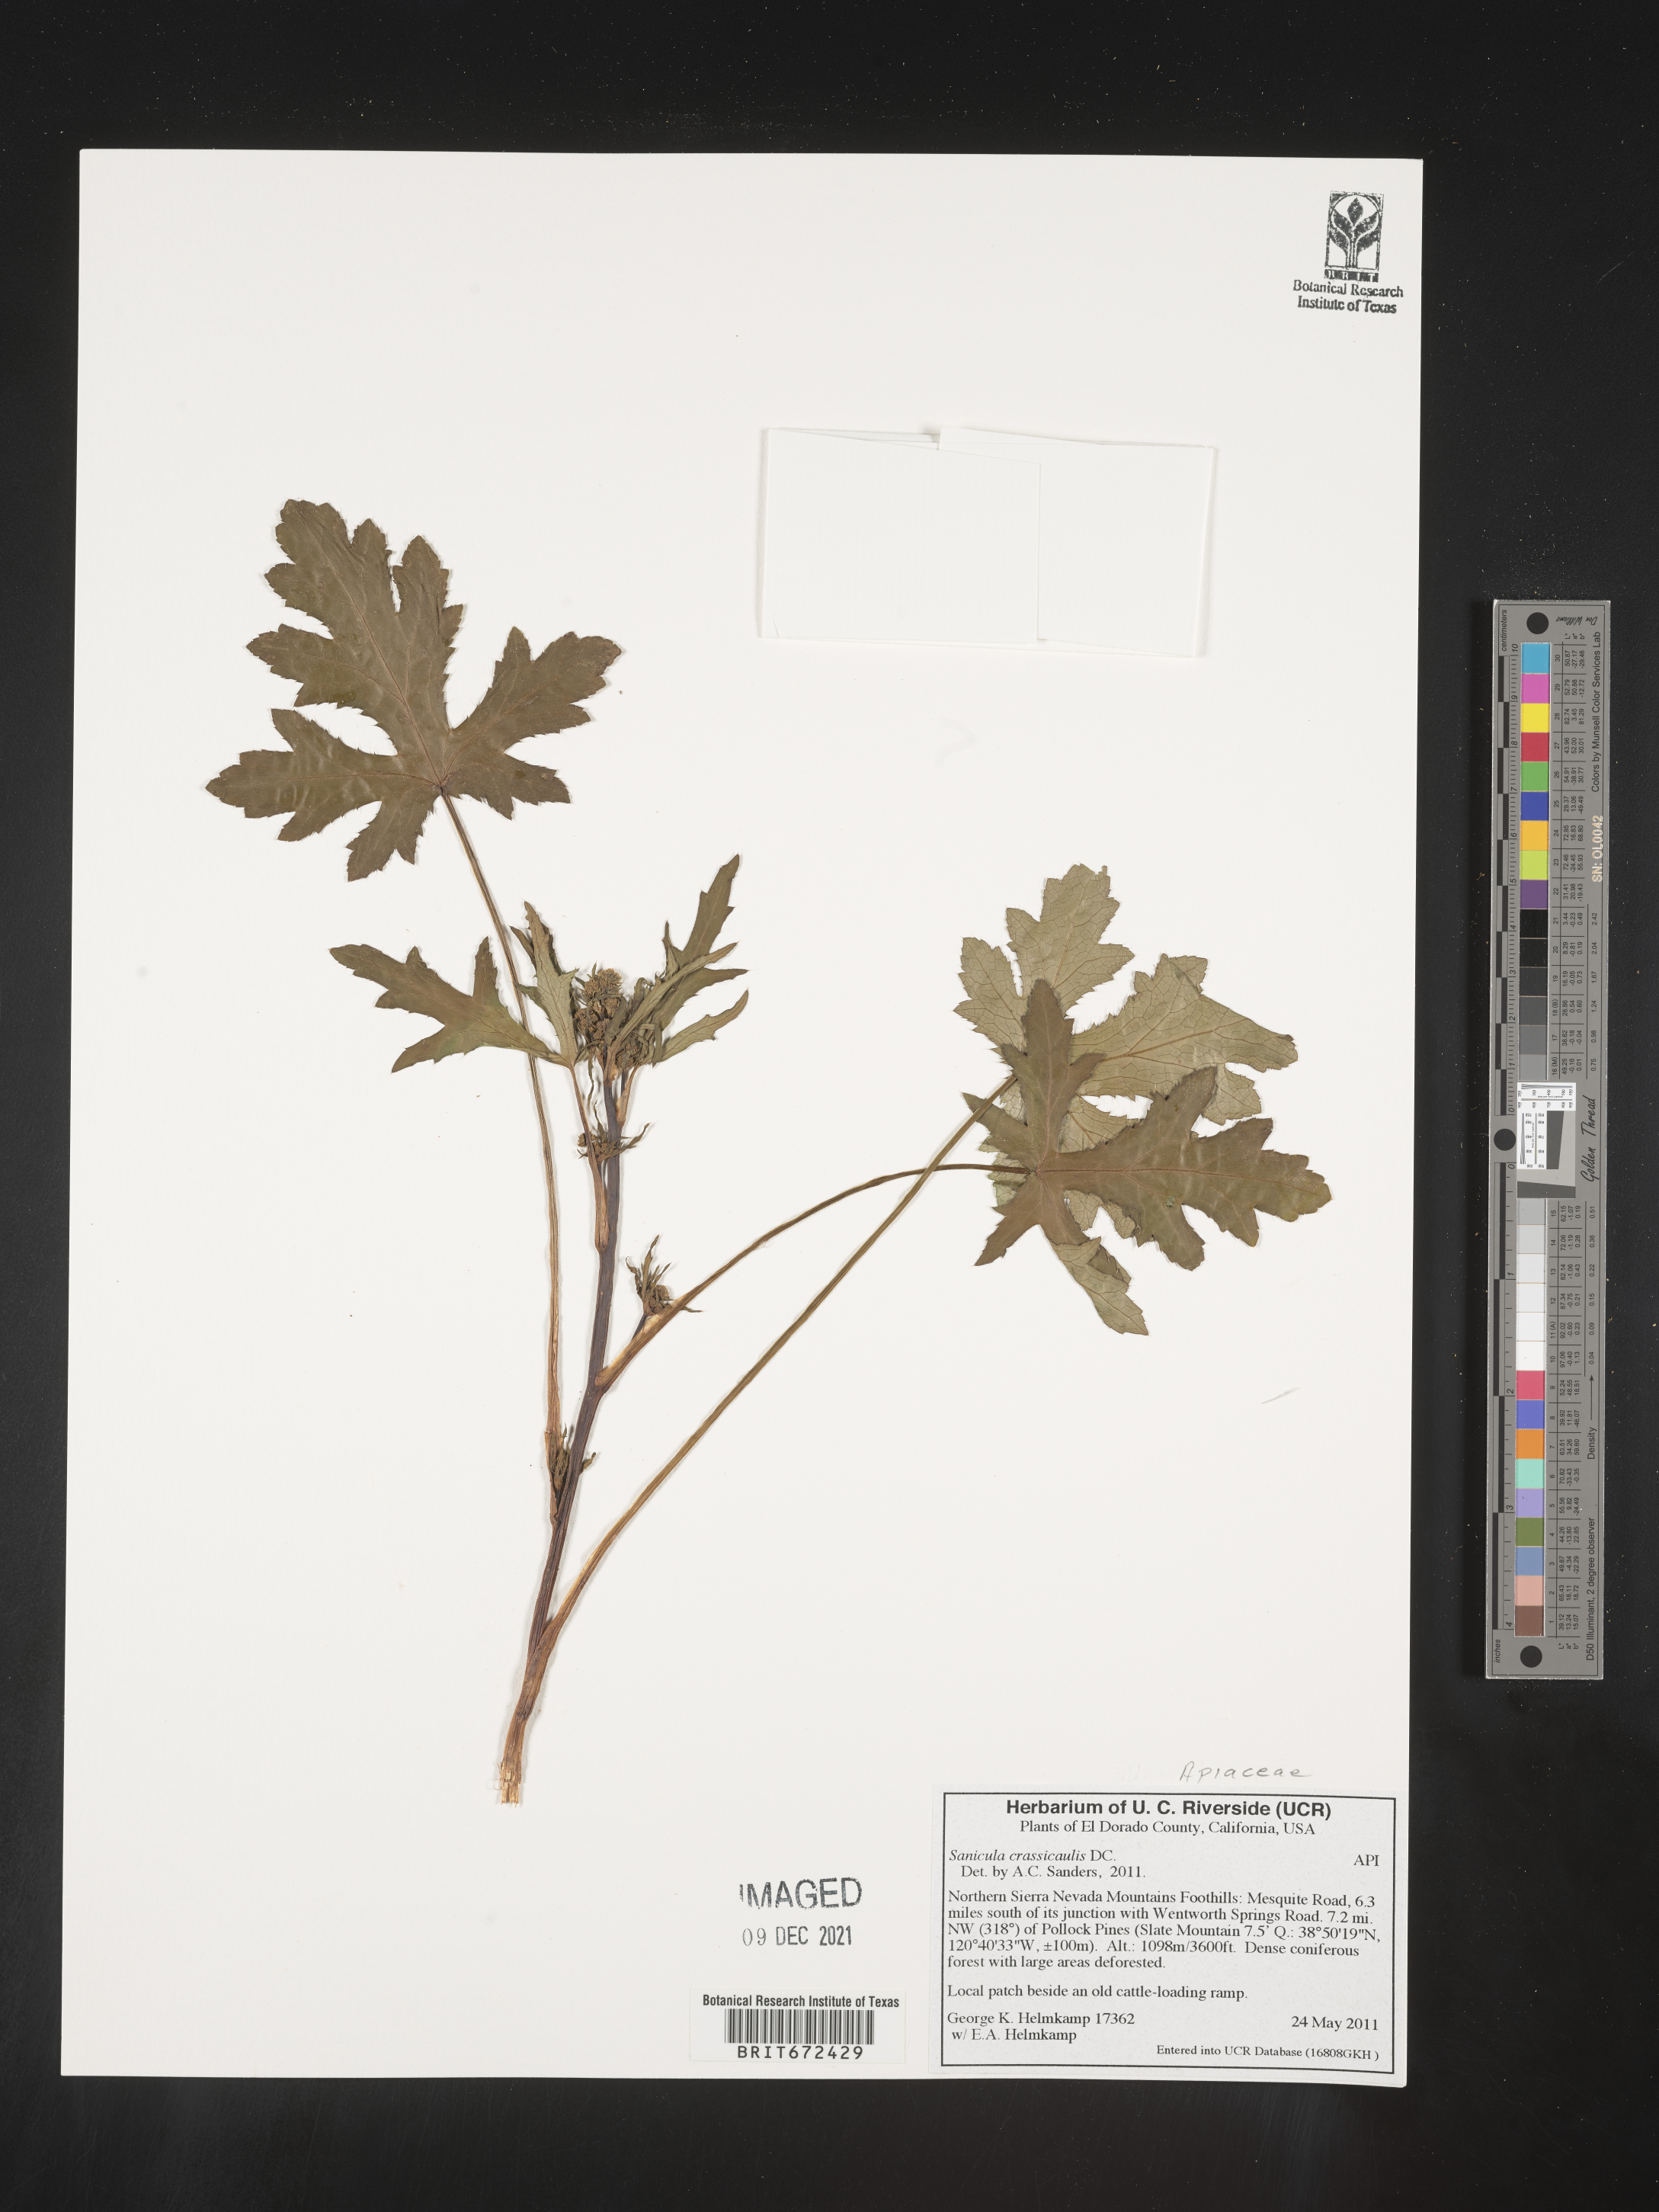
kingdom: Plantae
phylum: Tracheophyta
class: Magnoliopsida
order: Apiales
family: Apiaceae
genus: Sanicula
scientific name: Sanicula crassicaulis
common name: Western snakeroot
